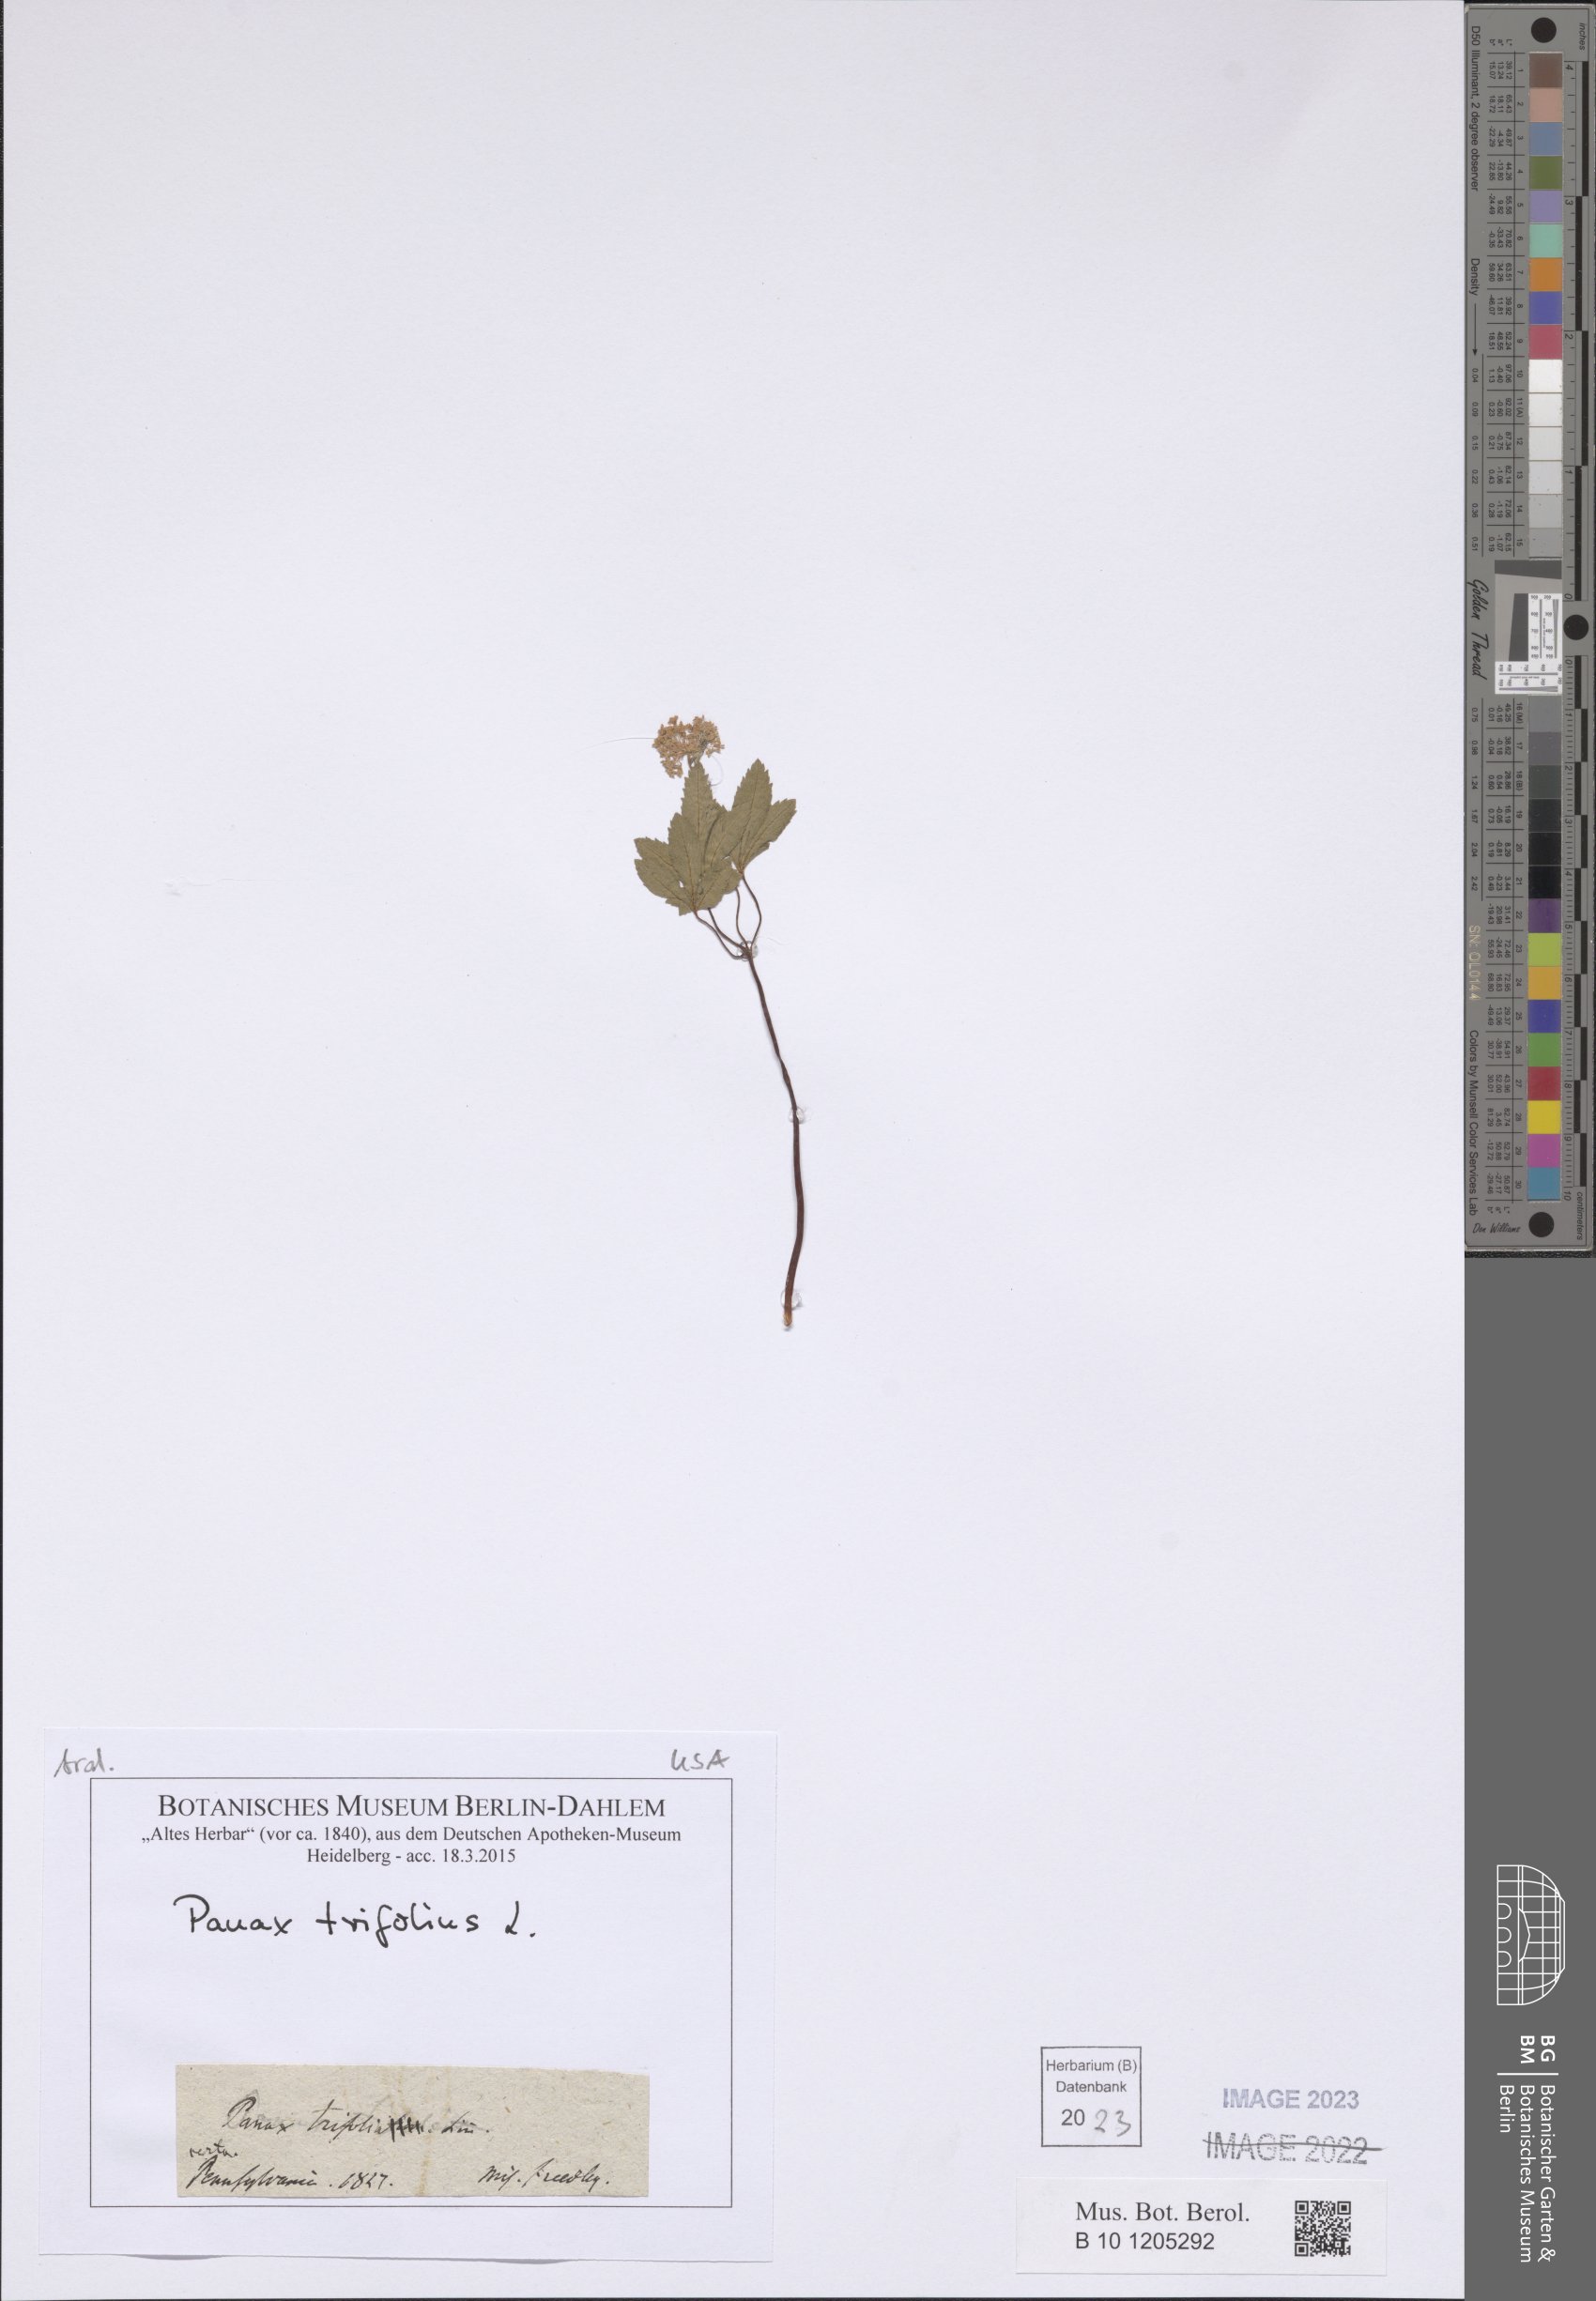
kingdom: Plantae
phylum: Tracheophyta
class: Magnoliopsida
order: Apiales
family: Araliaceae
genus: Panax
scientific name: Panax trifolius
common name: Dwarf ginseng
